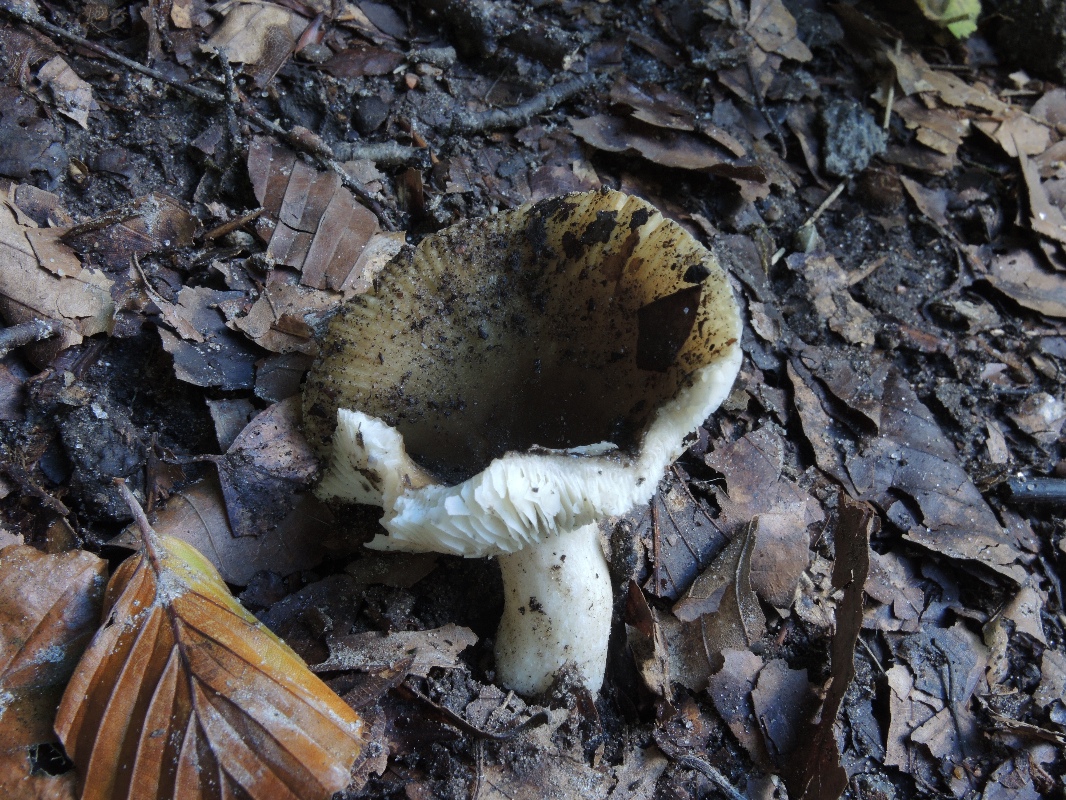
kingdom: Fungi
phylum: Basidiomycota
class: Agaricomycetes
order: Russulales
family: Russulaceae
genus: Russula
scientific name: Russula recondita
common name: mild kam-skørhat
